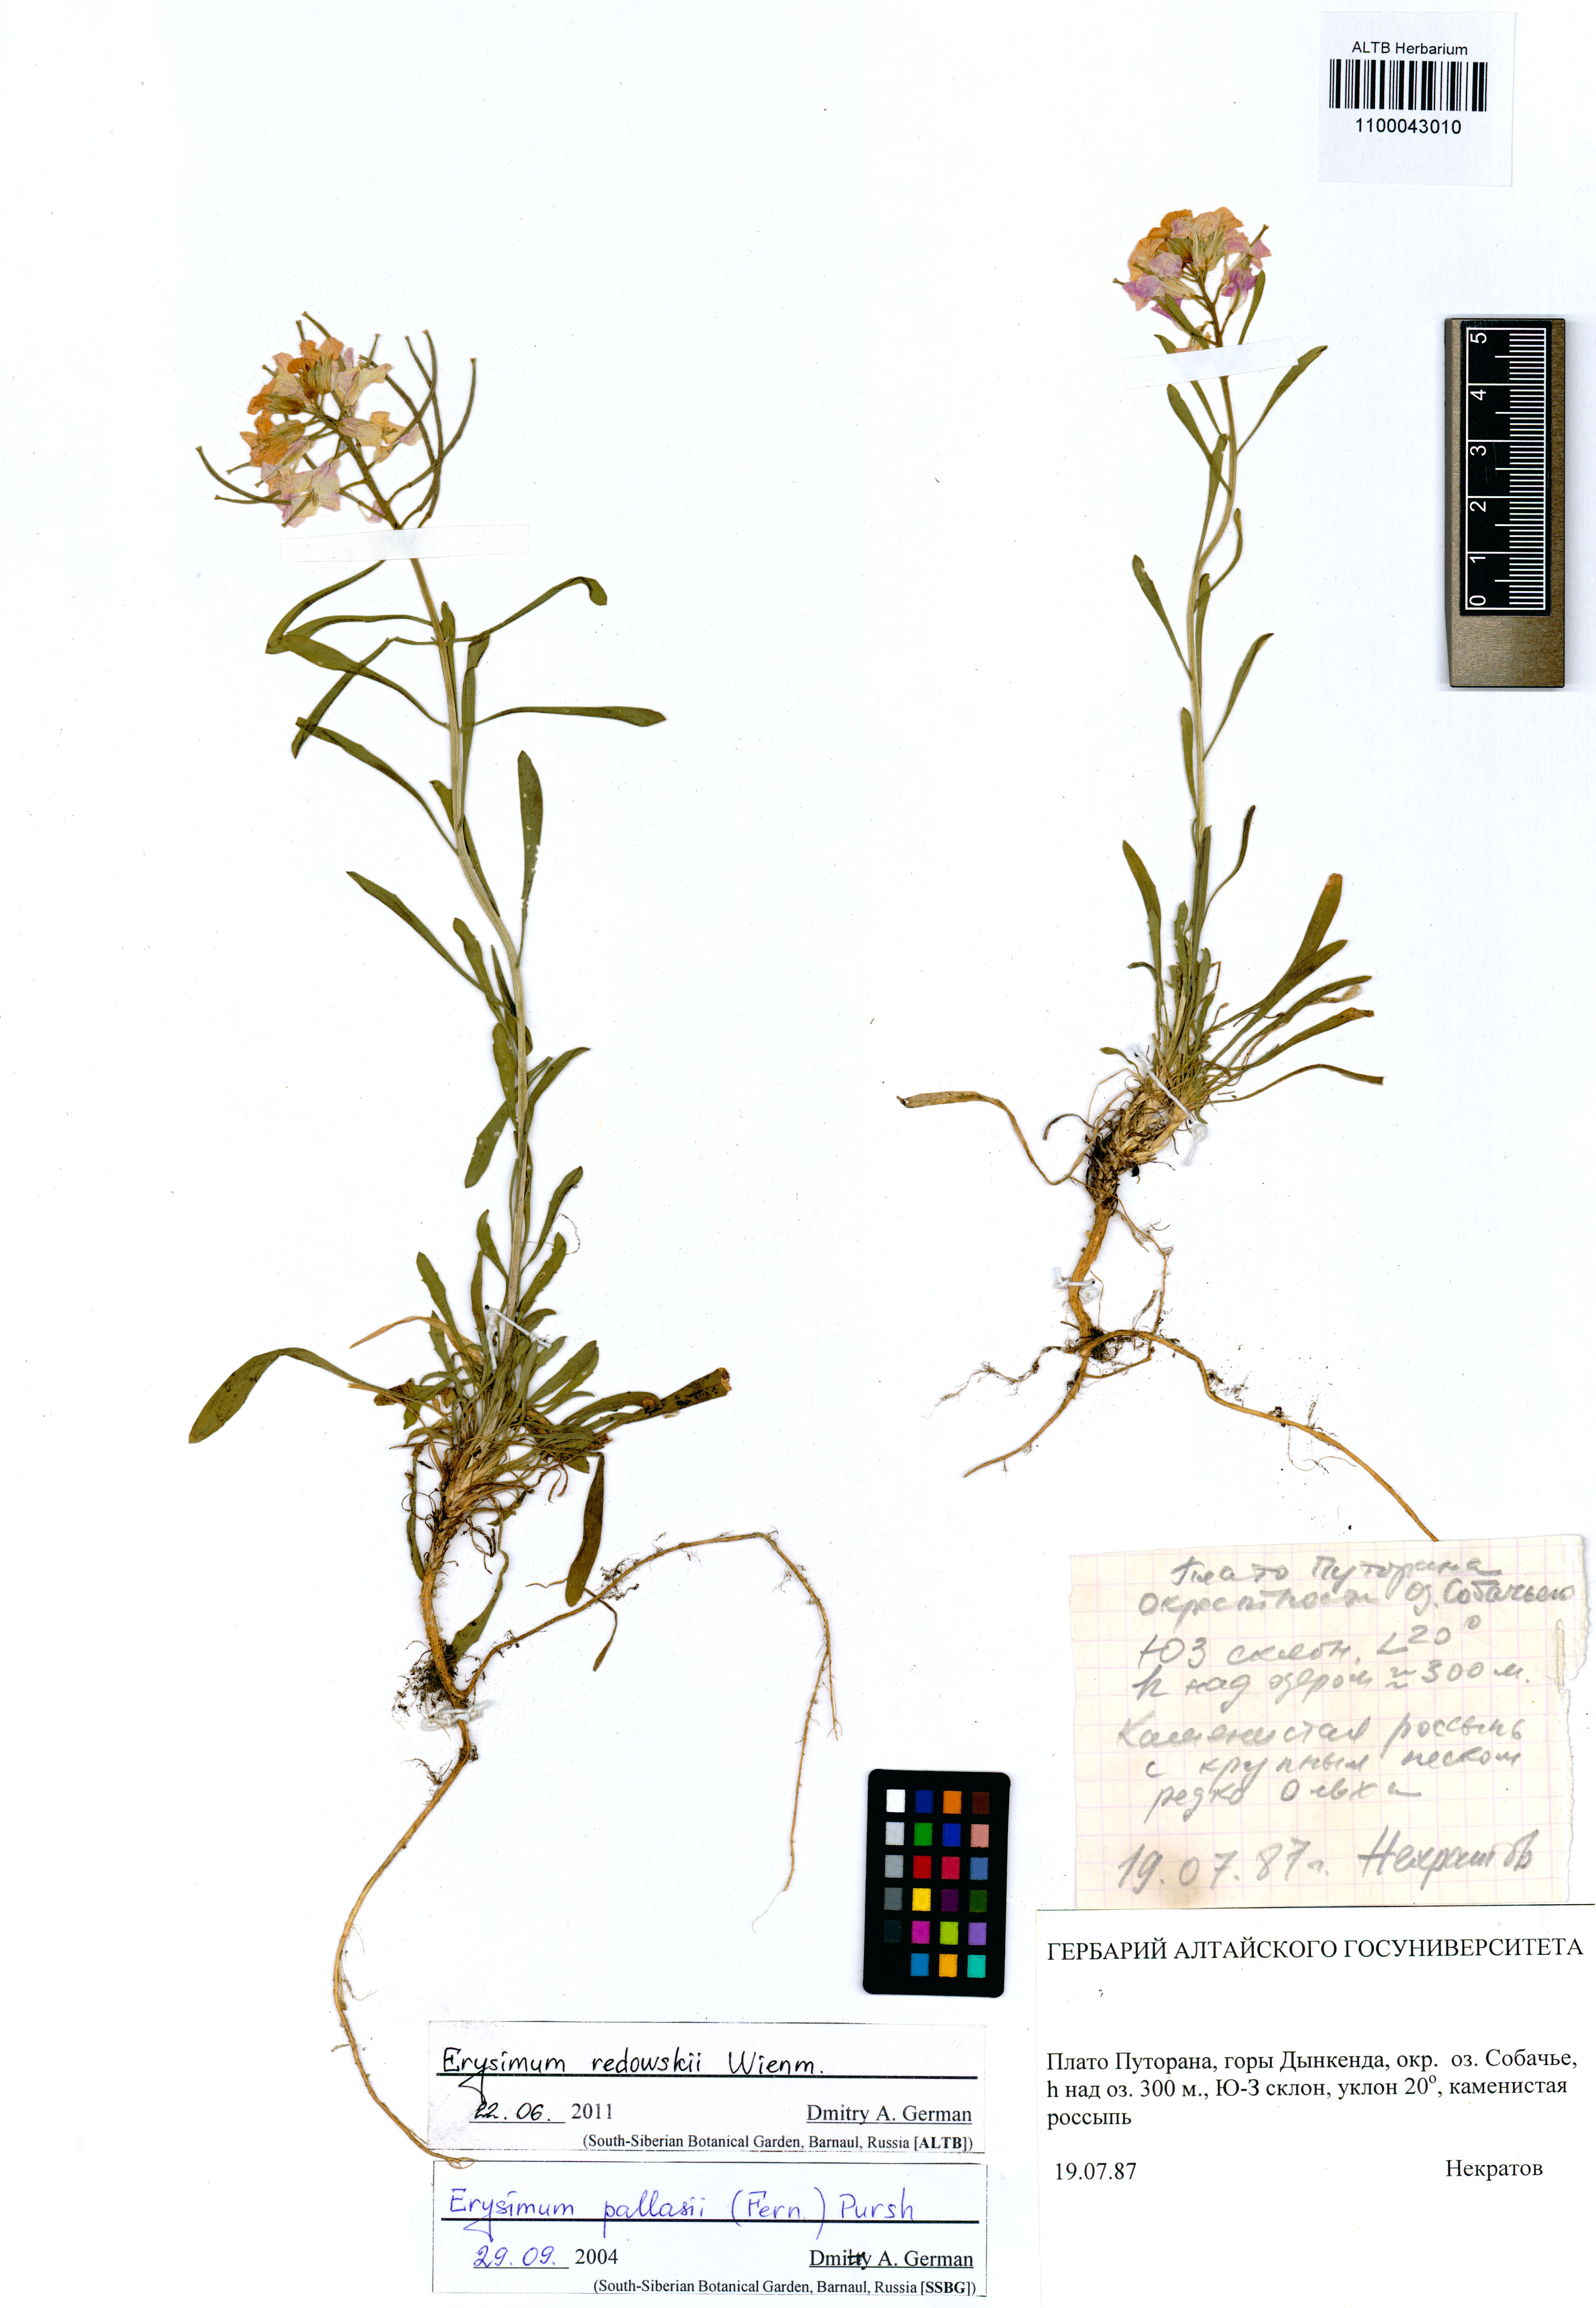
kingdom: Plantae
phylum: Tracheophyta
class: Magnoliopsida
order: Brassicales
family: Brassicaceae
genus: Erysimum
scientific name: Erysimum redowskii
